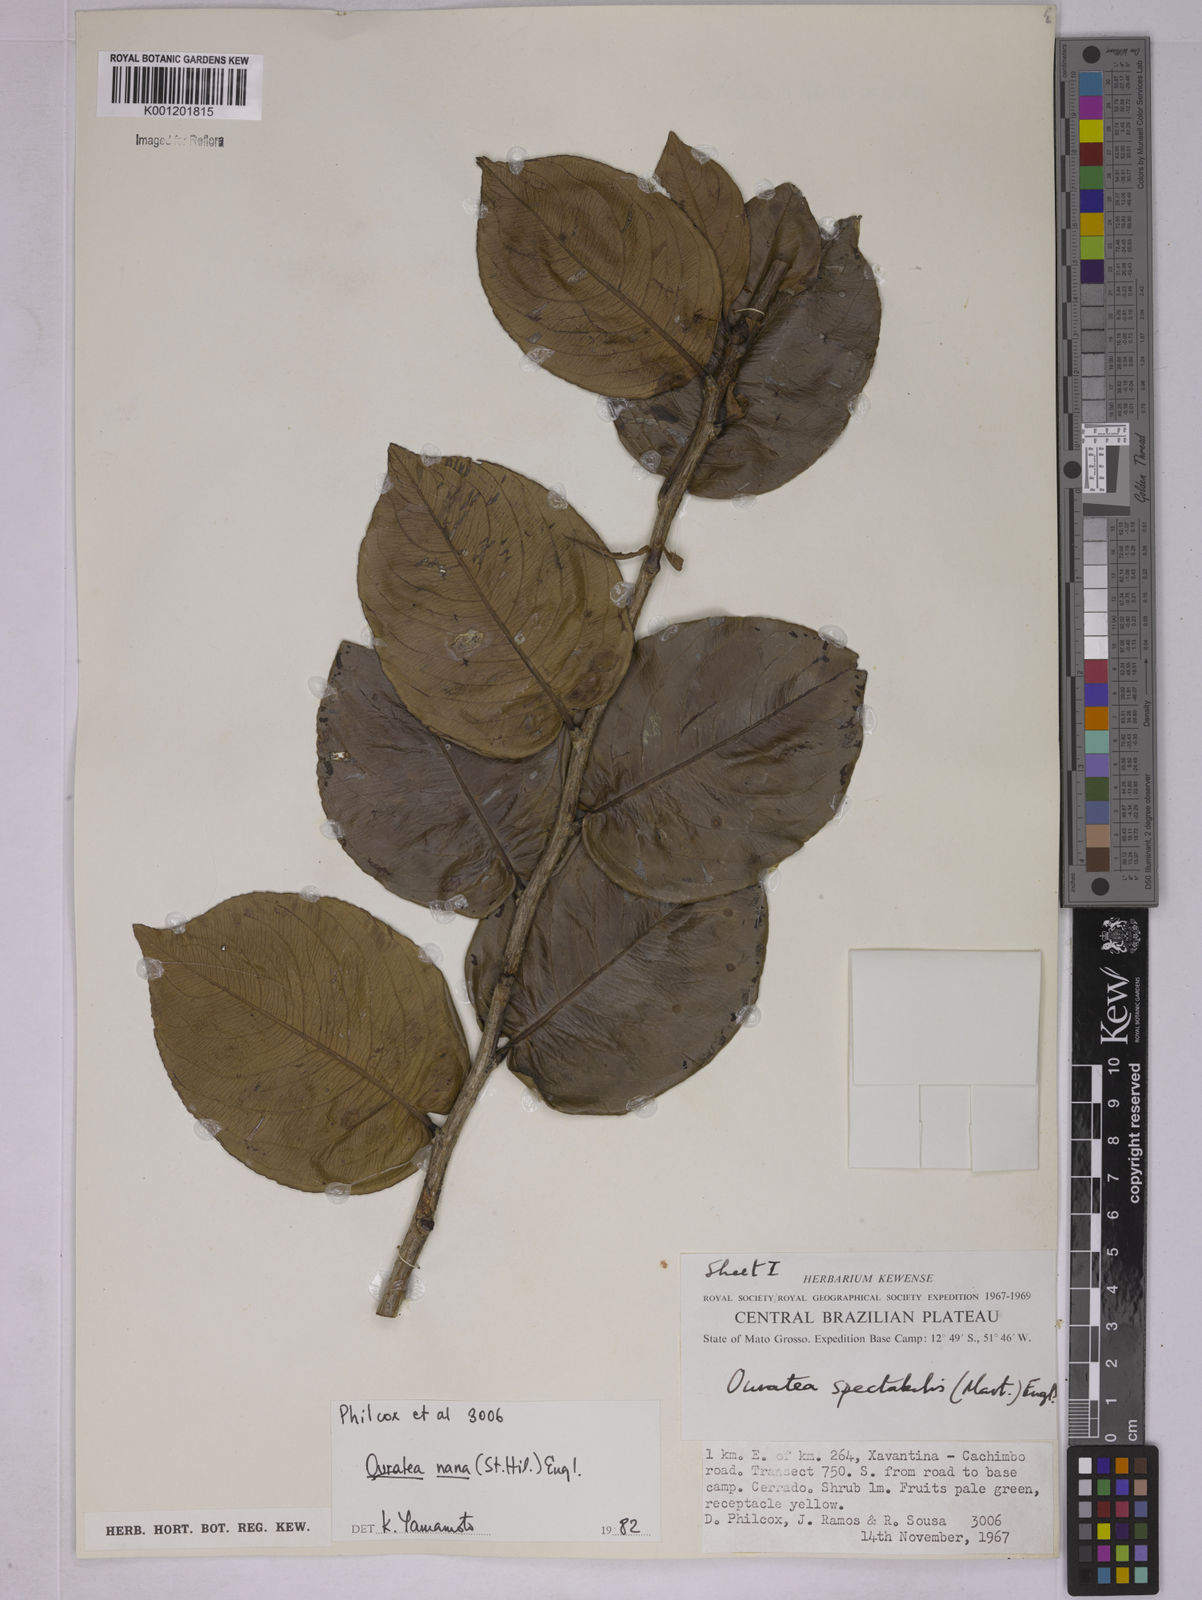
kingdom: Plantae
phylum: Tracheophyta
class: Magnoliopsida
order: Malpighiales
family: Ochnaceae
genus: Ouratea
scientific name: Ouratea nana
